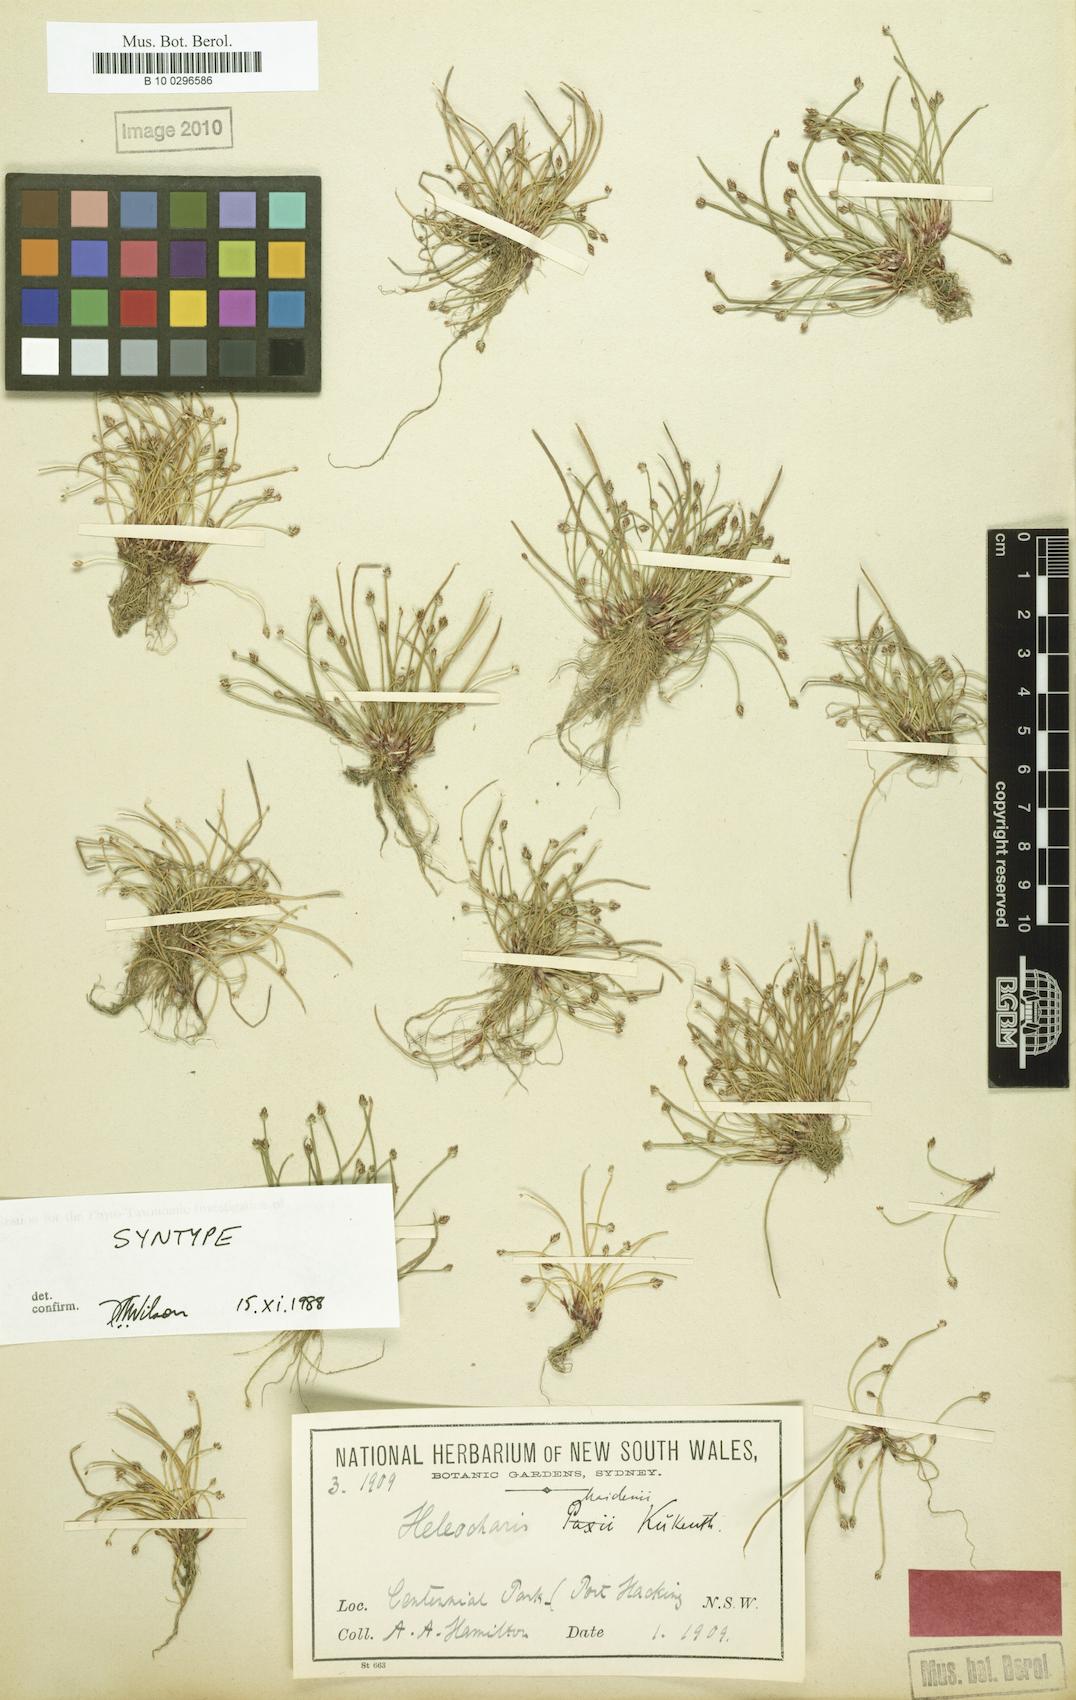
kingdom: Plantae
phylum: Tracheophyta
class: Liliopsida
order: Poales
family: Cyperaceae
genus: Eleocharis
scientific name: Eleocharis maidenii
